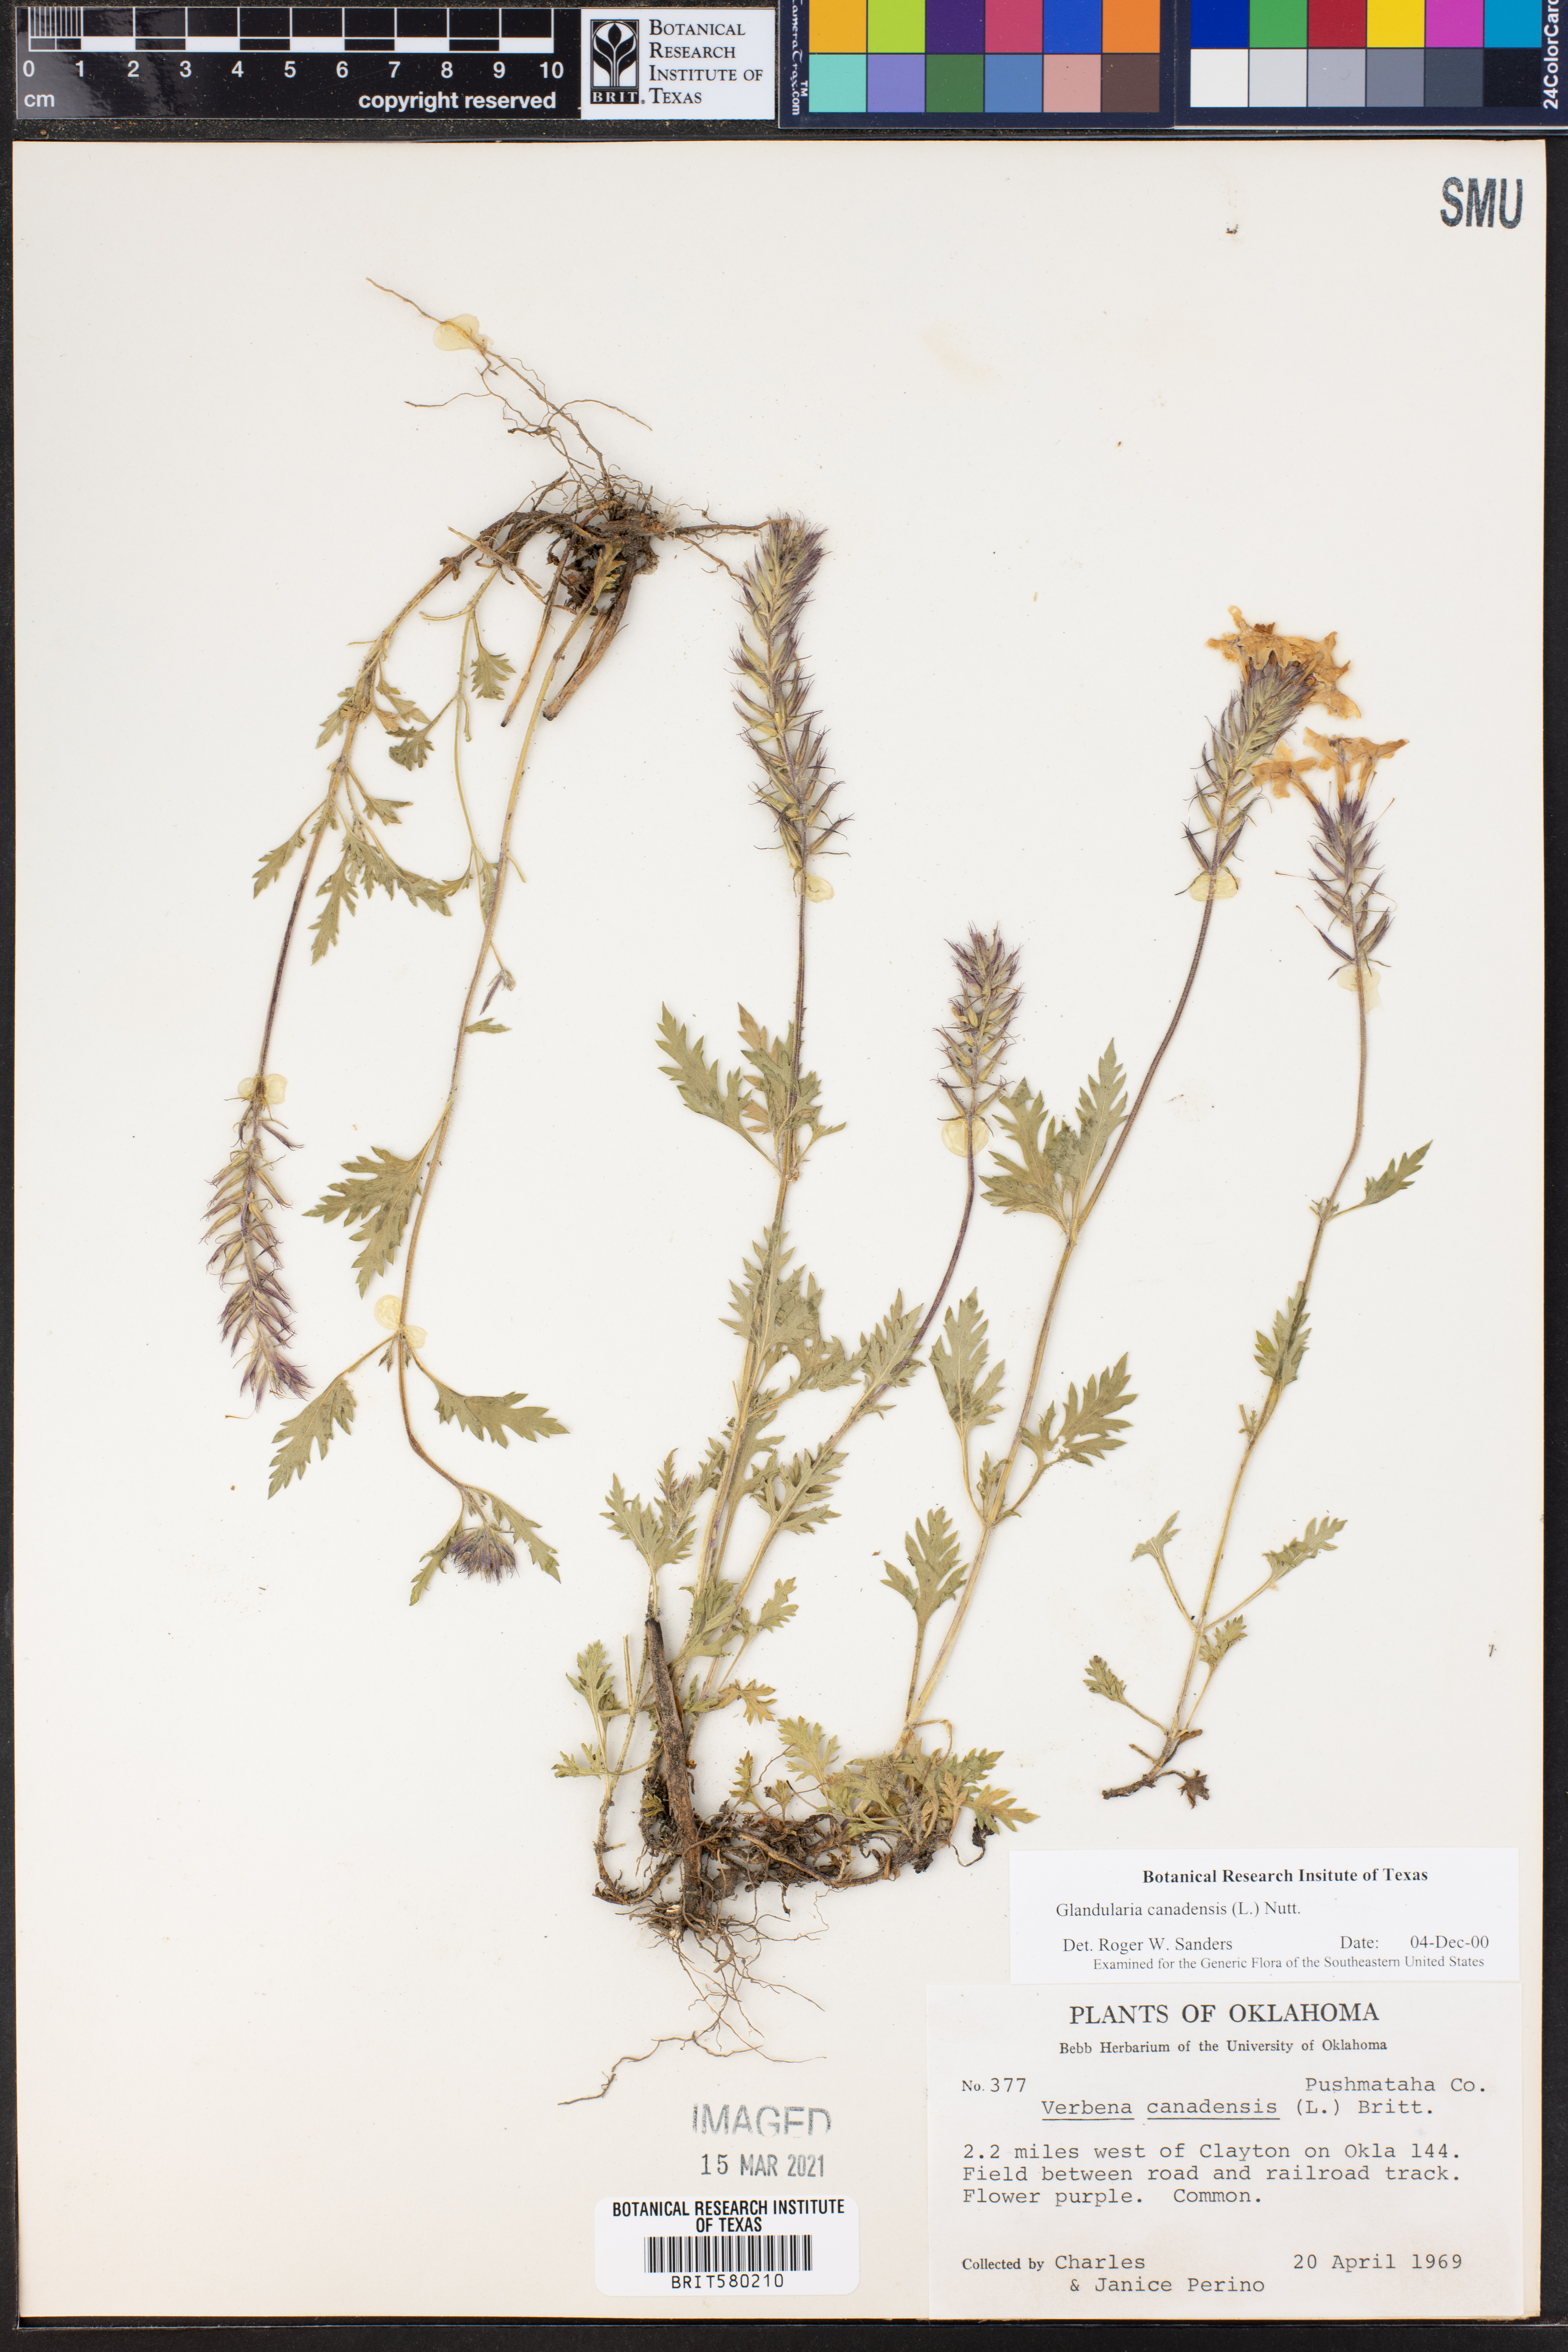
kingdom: Plantae
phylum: Tracheophyta
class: Magnoliopsida
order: Lamiales
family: Verbenaceae
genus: Verbena
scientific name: Verbena canadensis
